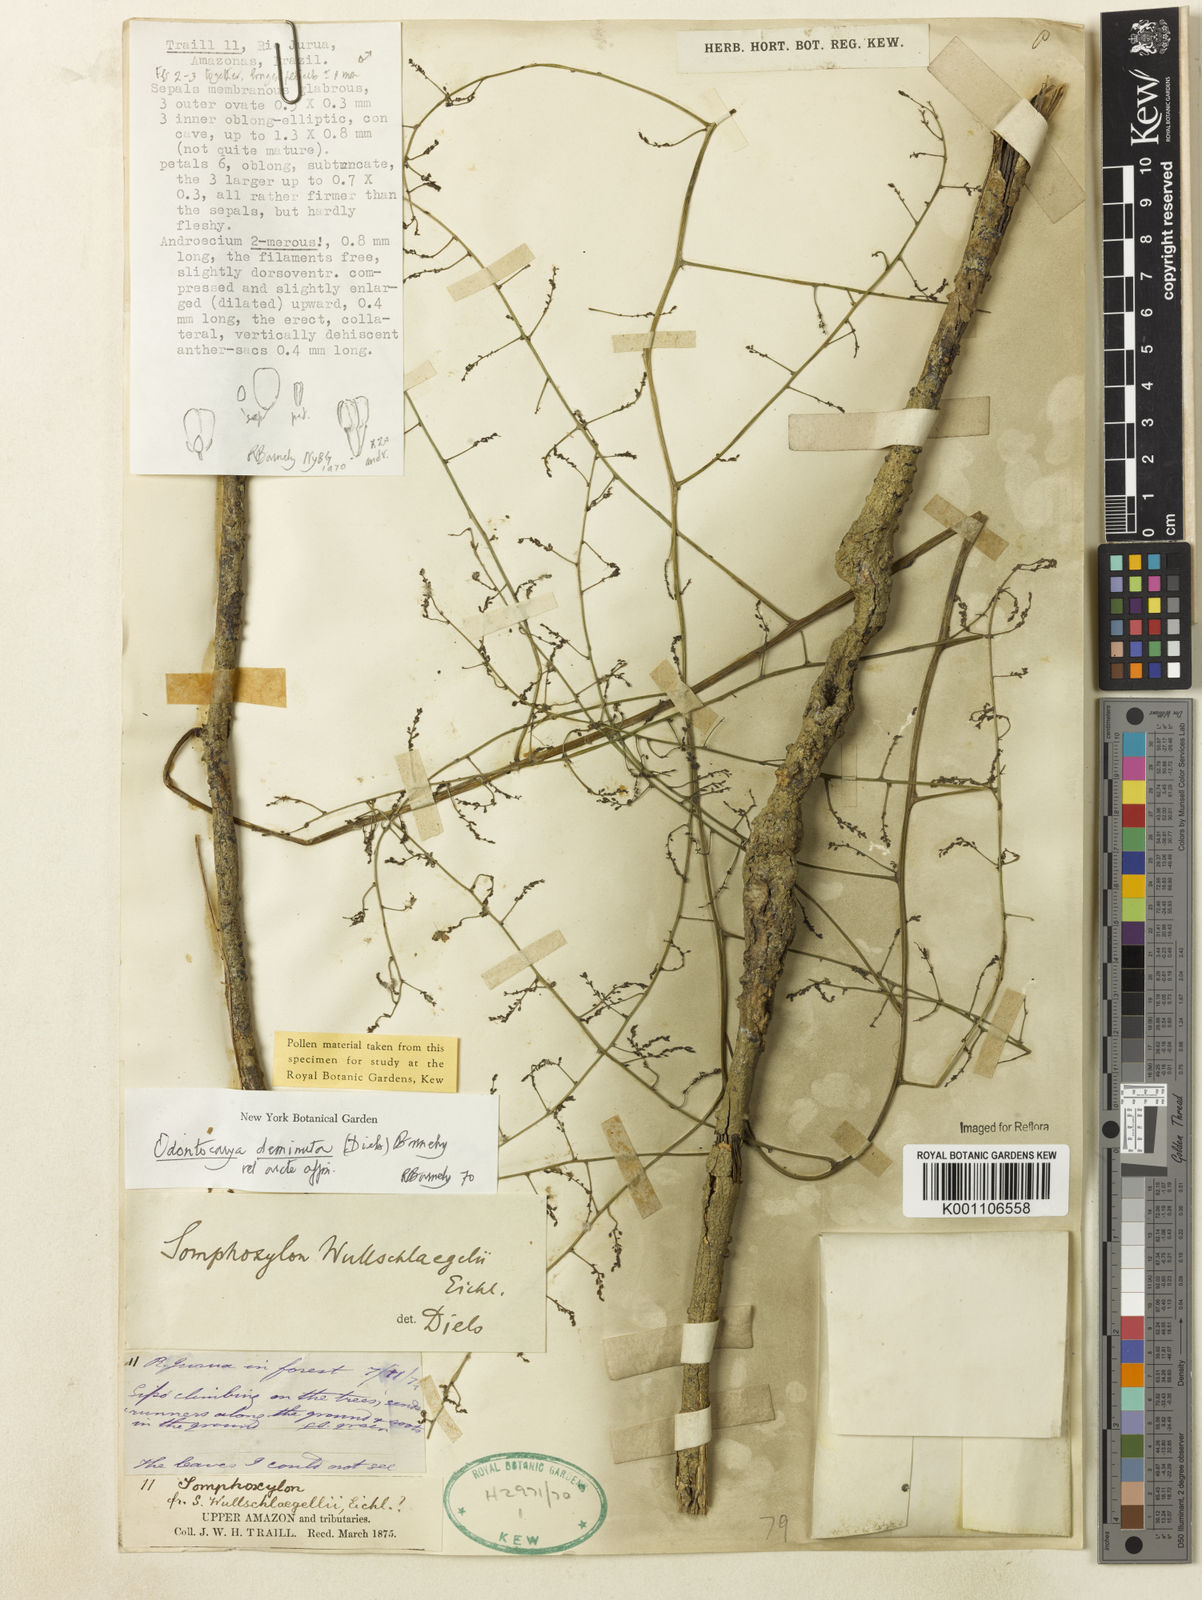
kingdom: Plantae
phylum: Tracheophyta
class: Magnoliopsida
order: Ranunculales
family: Menispermaceae
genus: Odontocarya
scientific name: Odontocarya deminuta
